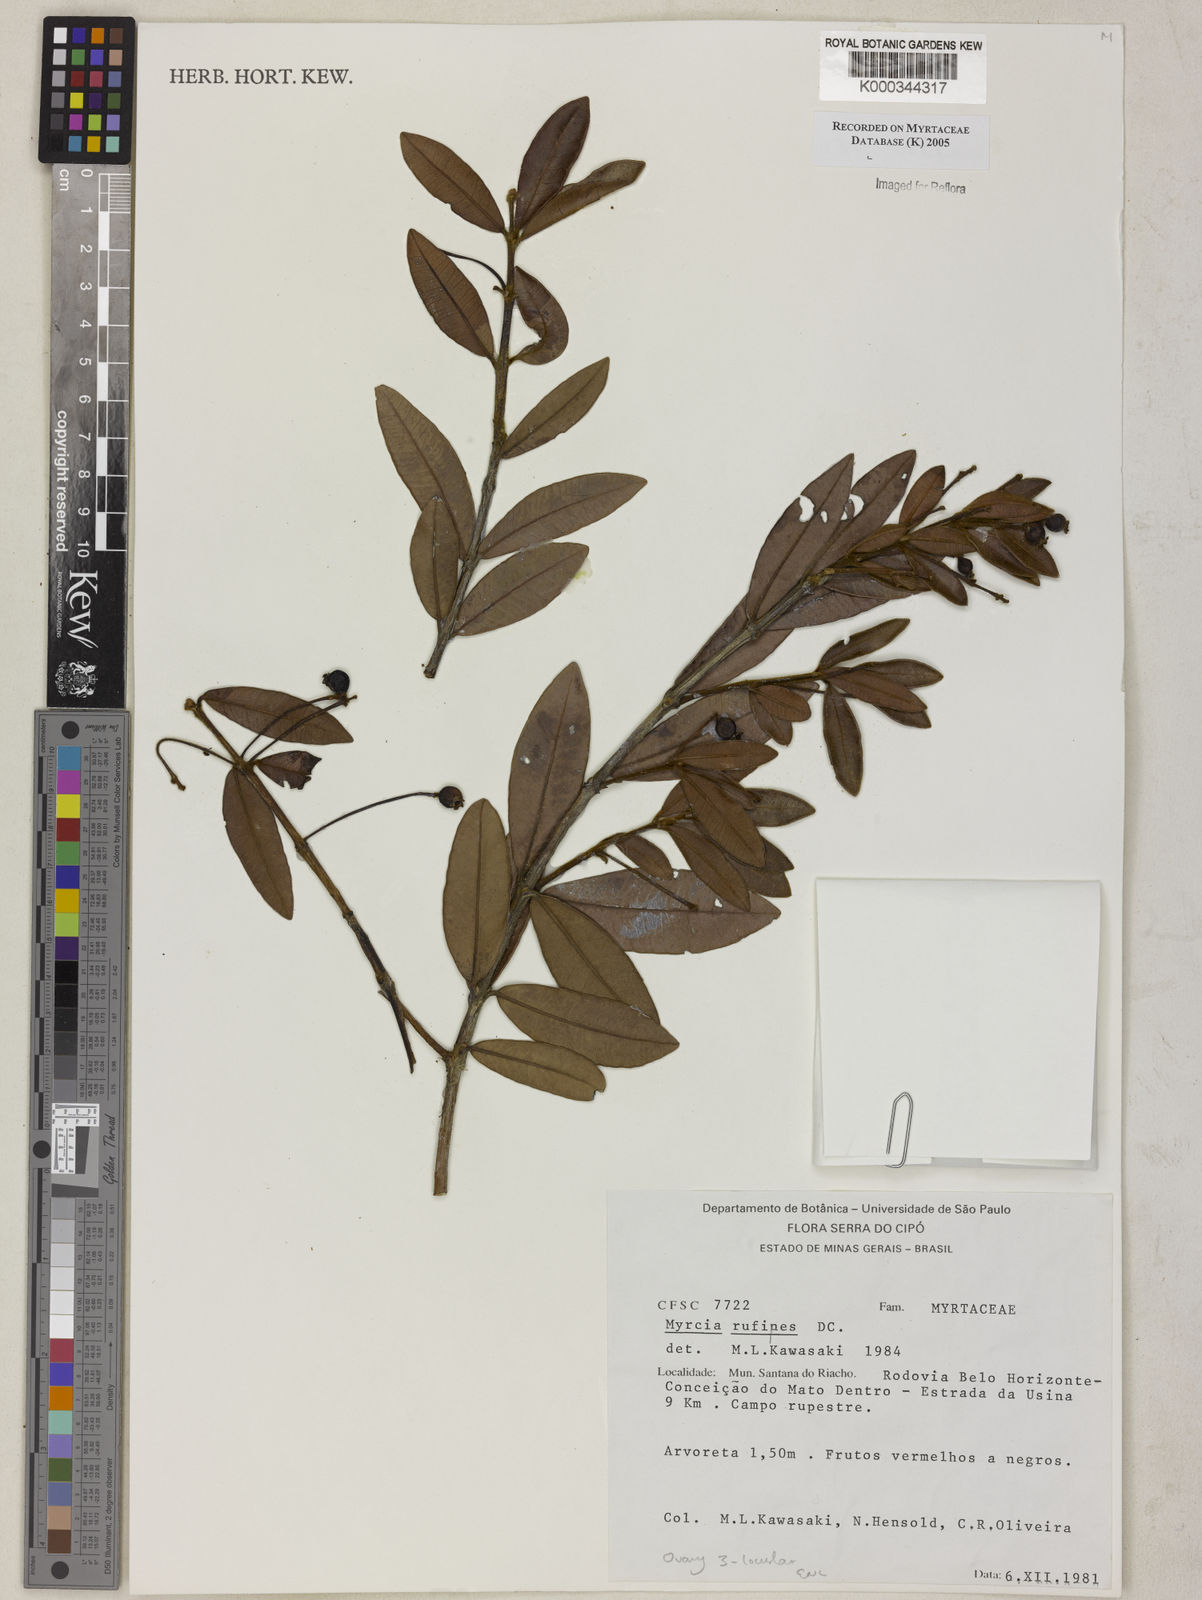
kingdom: Plantae
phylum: Tracheophyta
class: Magnoliopsida
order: Myrtales
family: Myrtaceae
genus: Myrcia
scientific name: Myrcia rufipes
